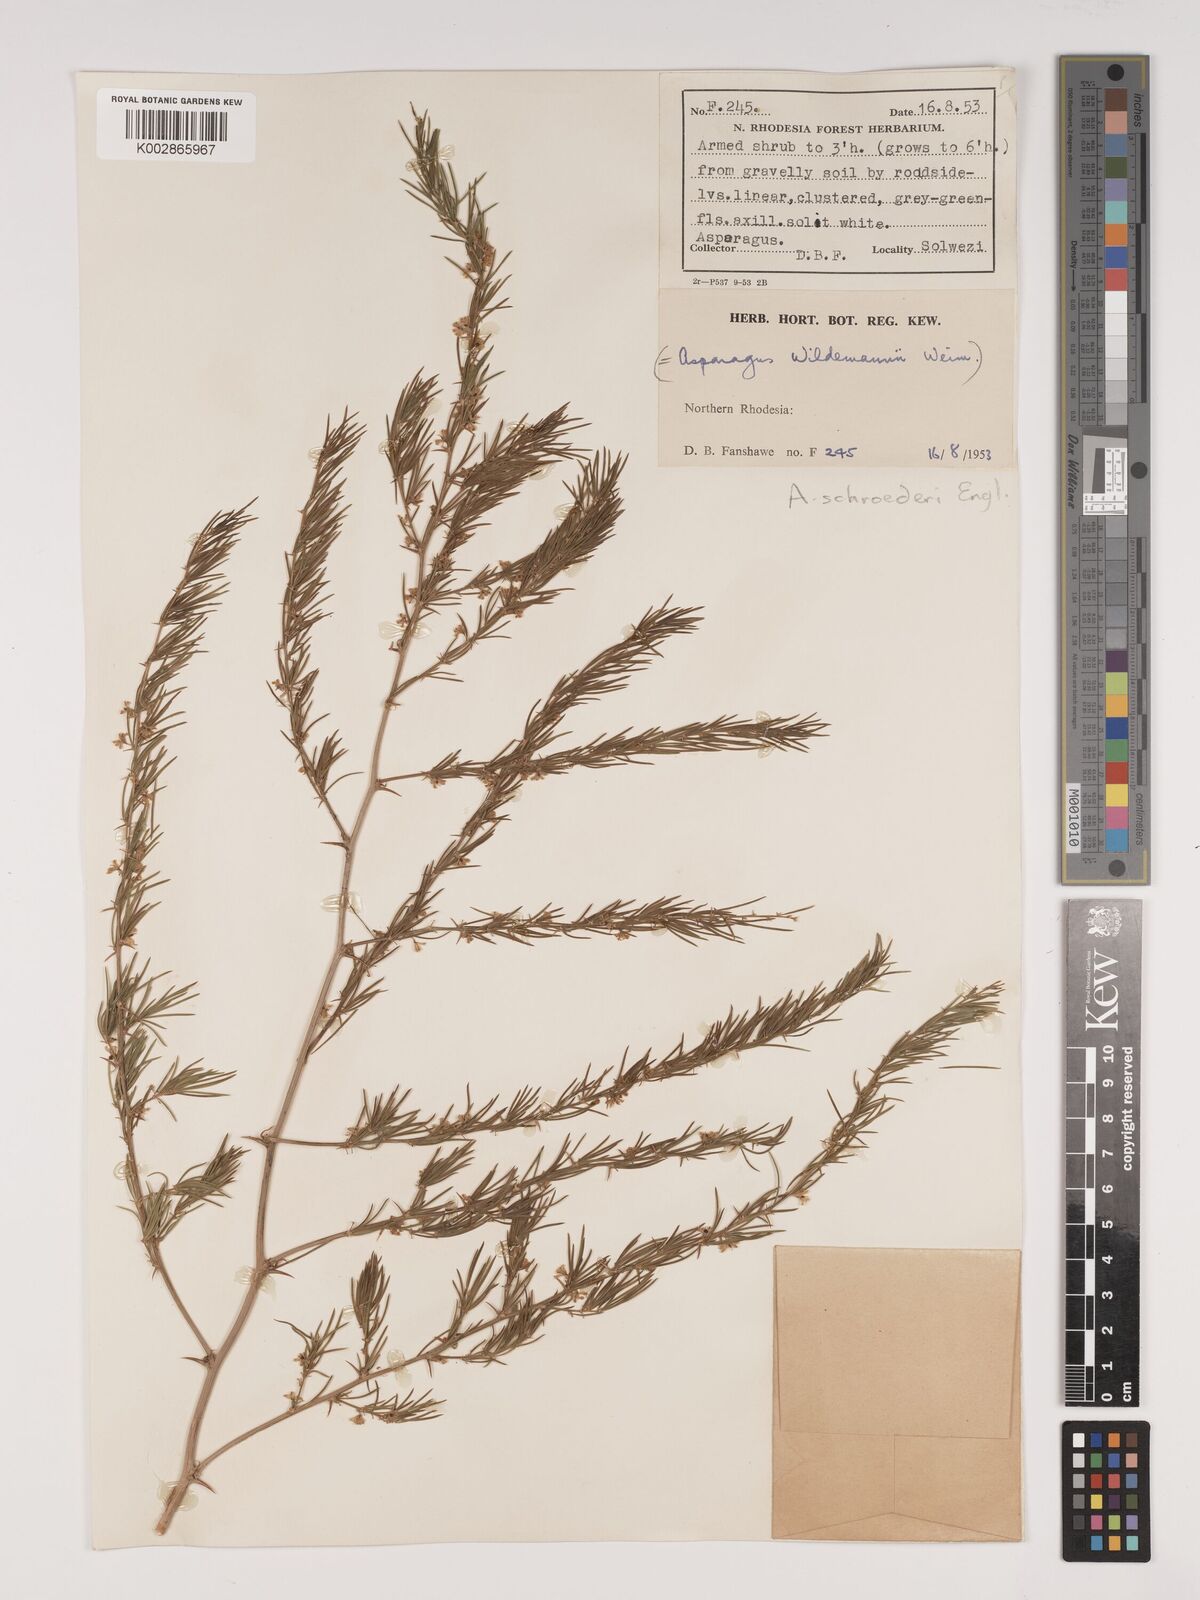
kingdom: Plantae
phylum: Tracheophyta
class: Liliopsida
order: Asparagales
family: Asparagaceae
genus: Asparagus
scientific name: Asparagus schroederi
